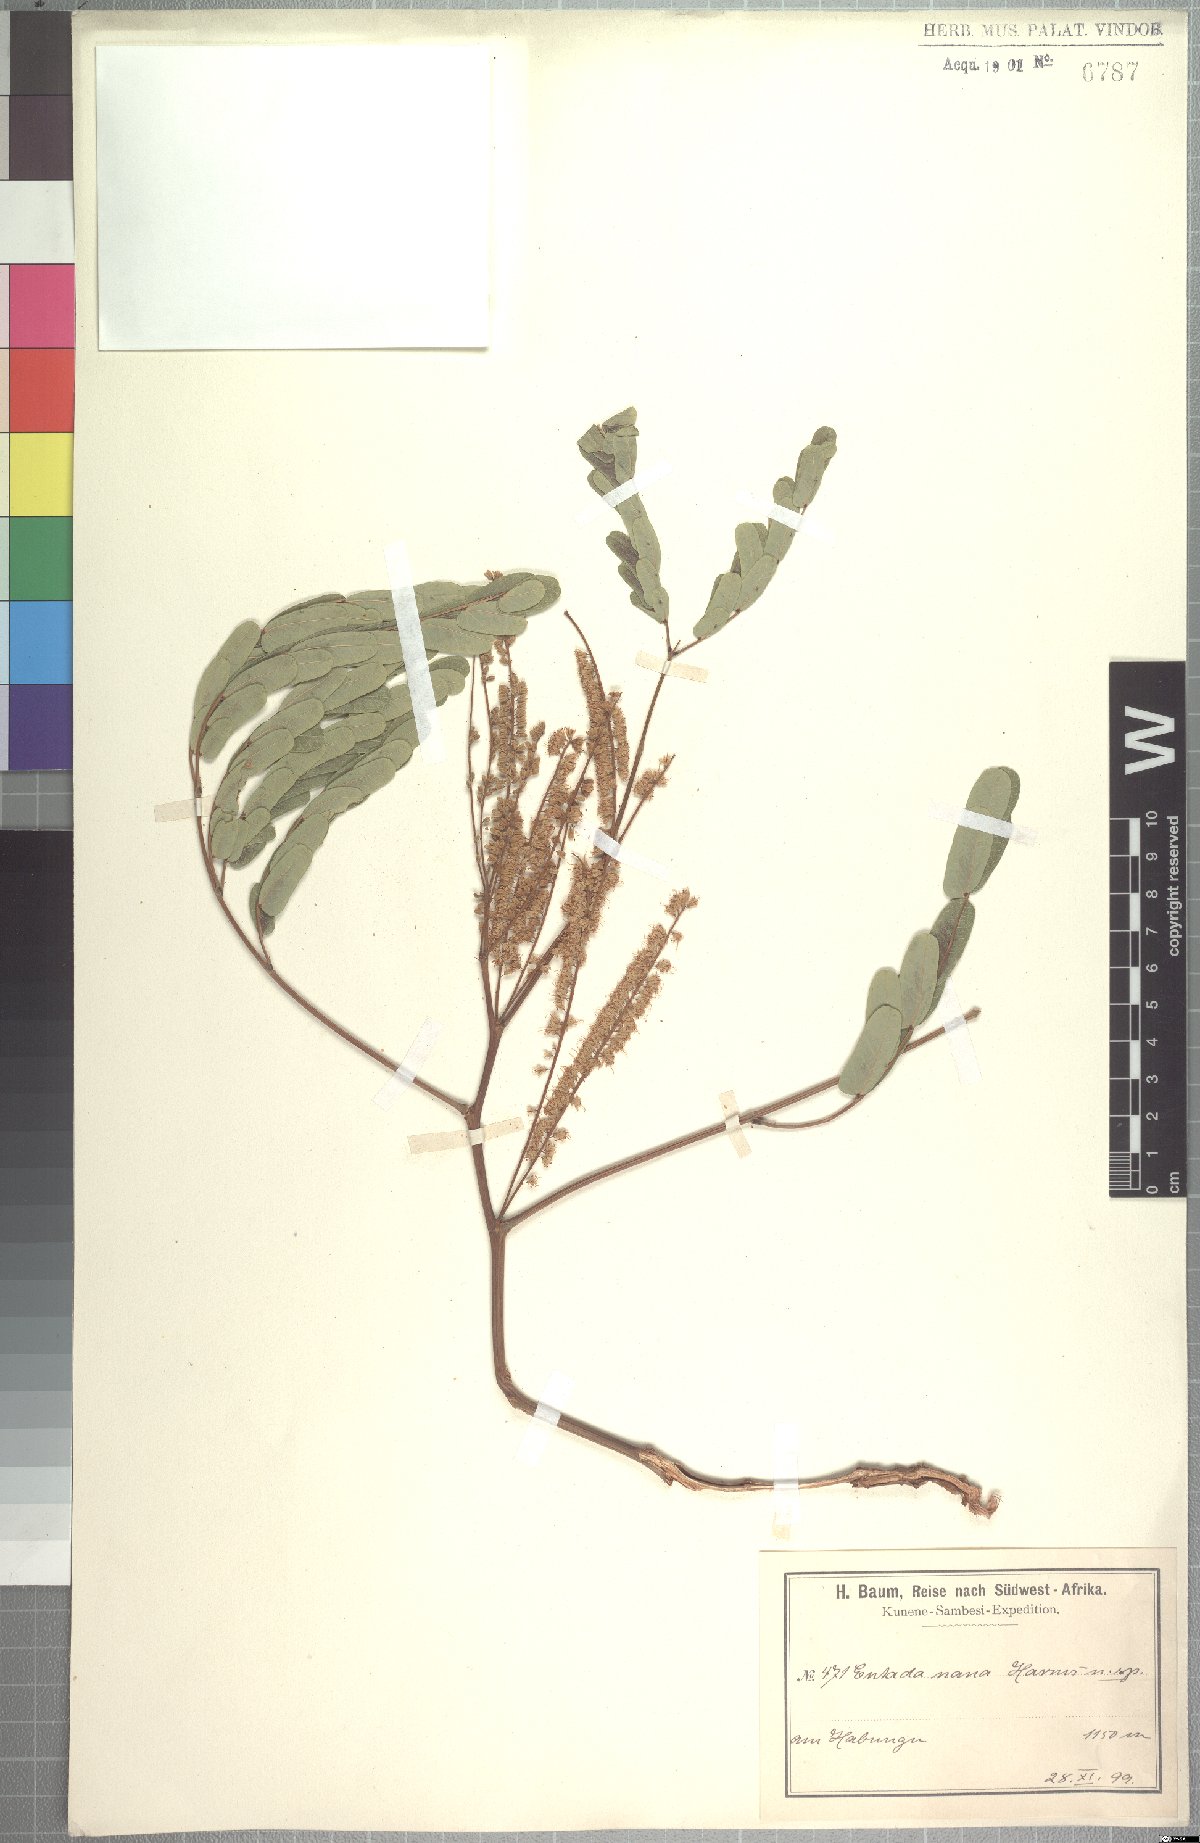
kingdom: Plantae
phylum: Tracheophyta
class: Magnoliopsida
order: Fabales
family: Fabaceae
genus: Entada
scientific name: Entada arenaria
